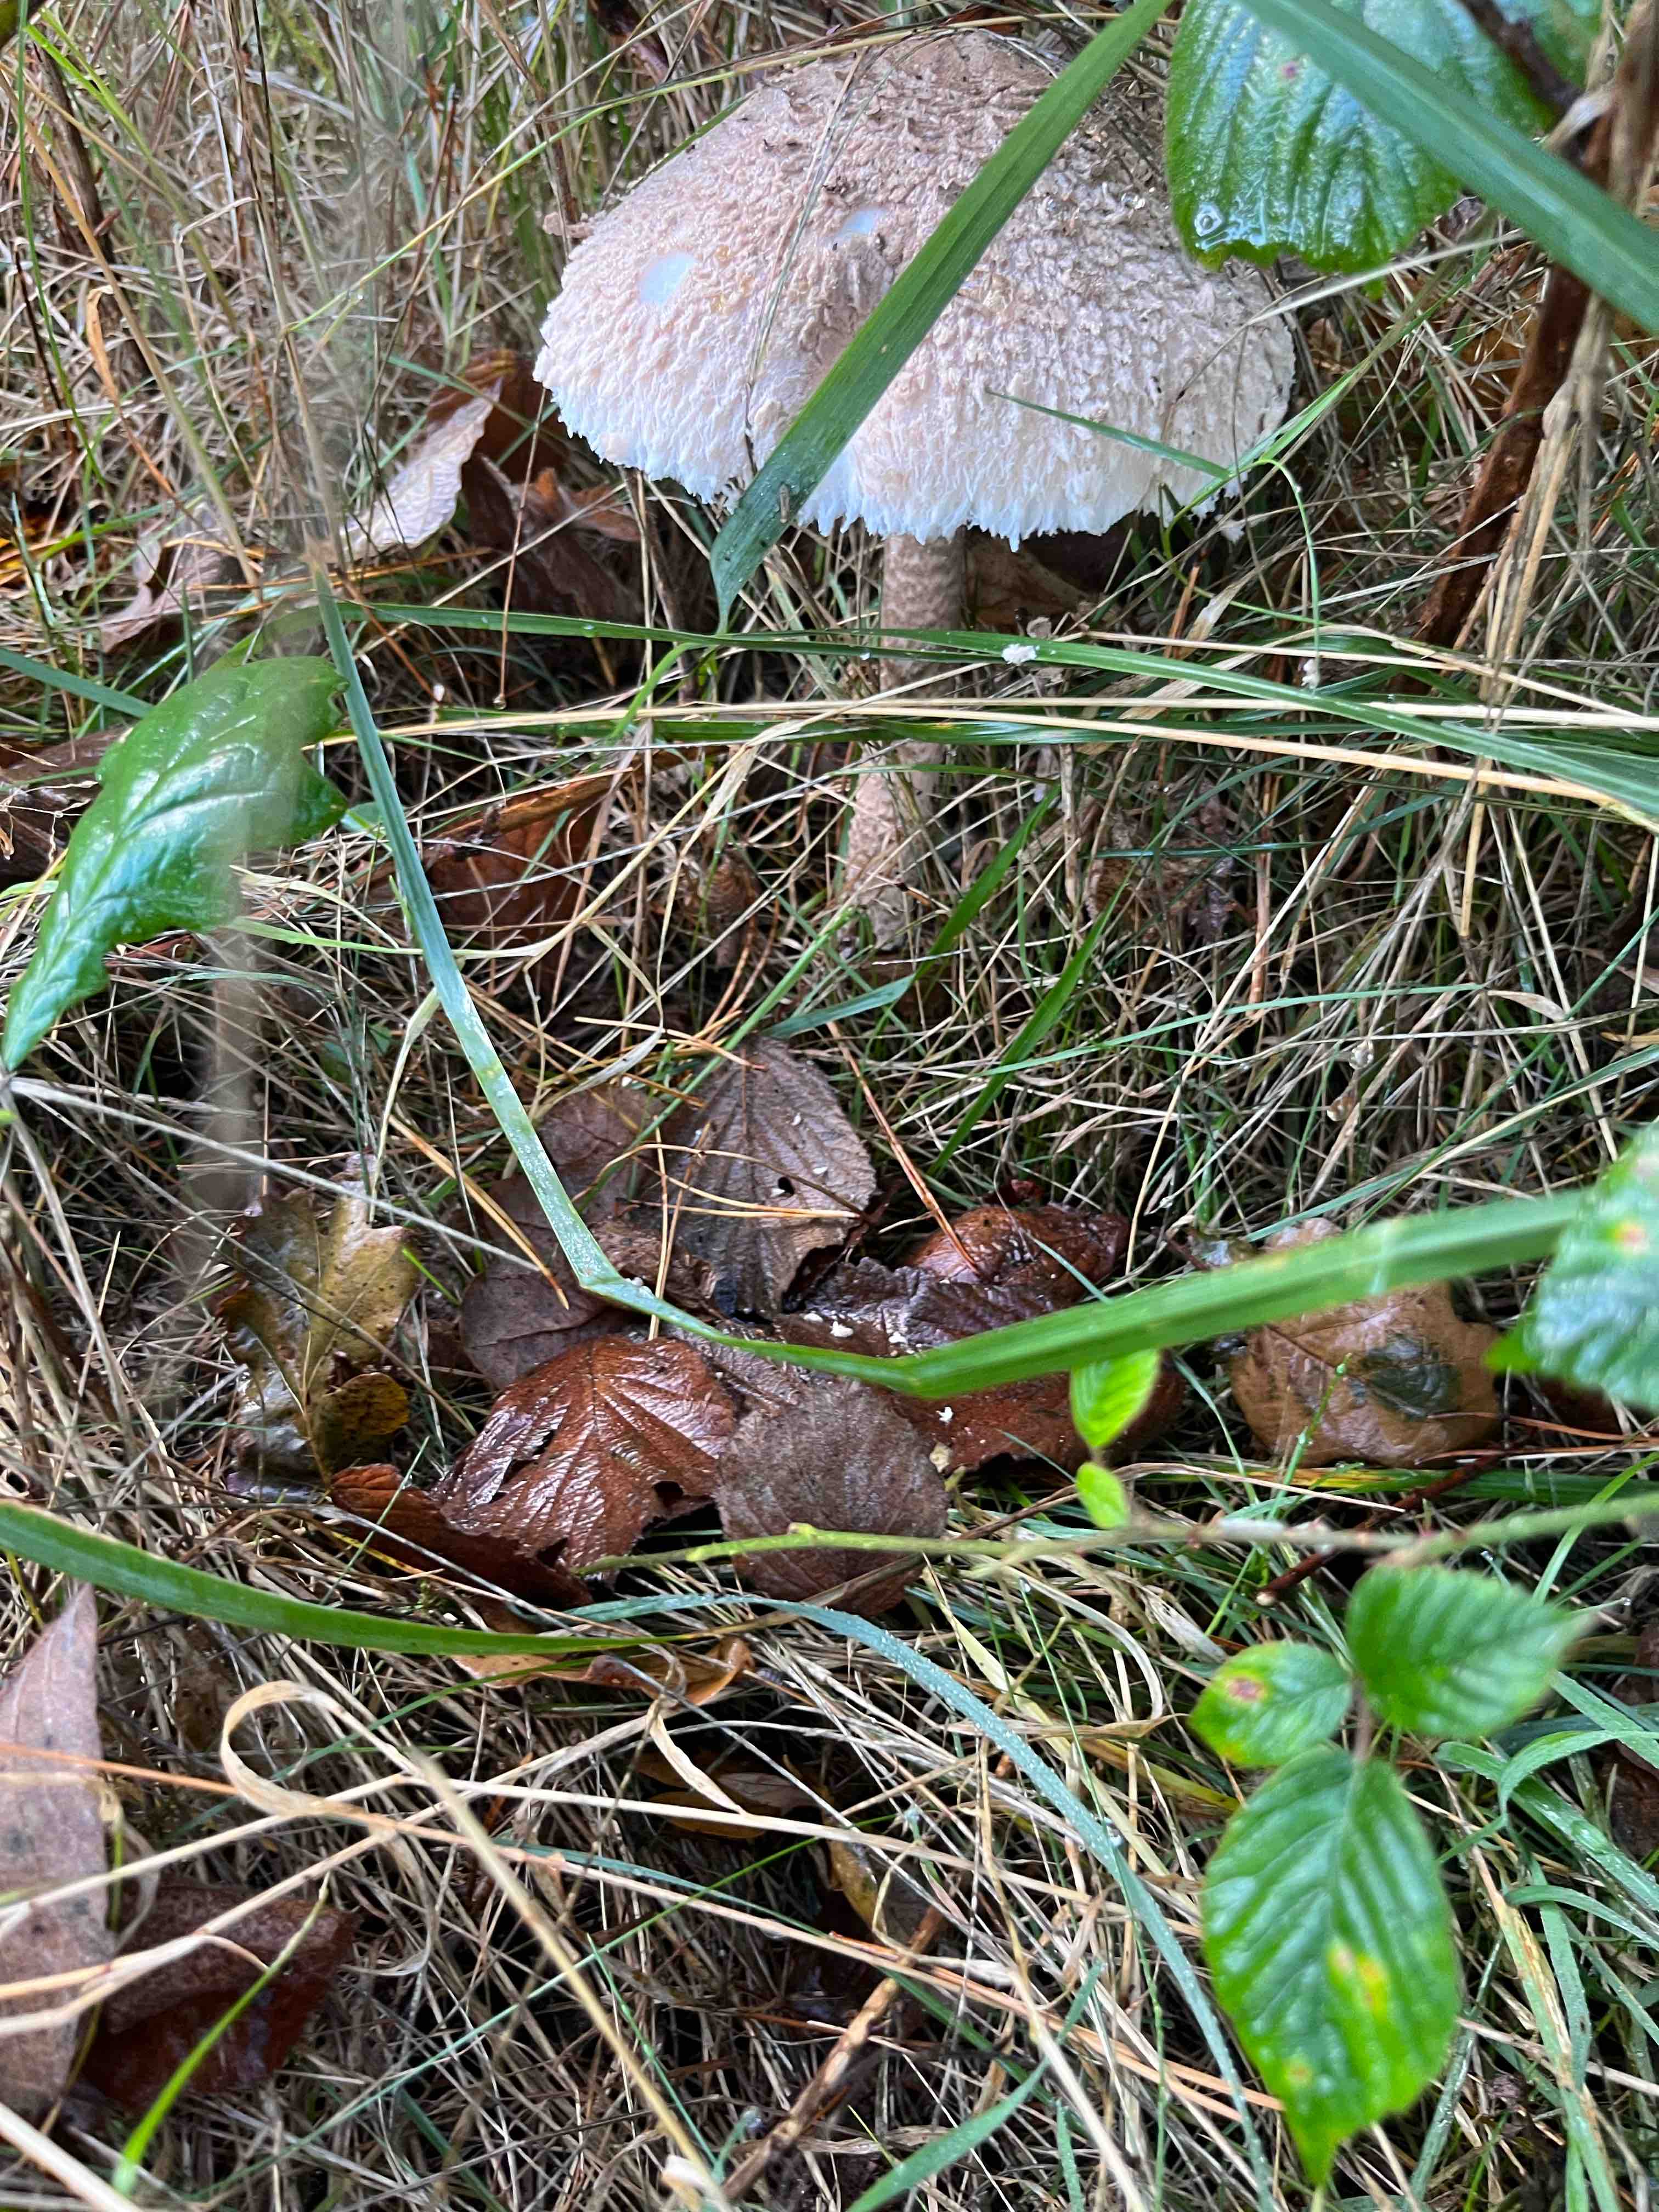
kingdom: Fungi
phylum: Basidiomycota
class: Agaricomycetes
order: Agaricales
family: Agaricaceae
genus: Macrolepiota
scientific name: Macrolepiota fuliginosa
